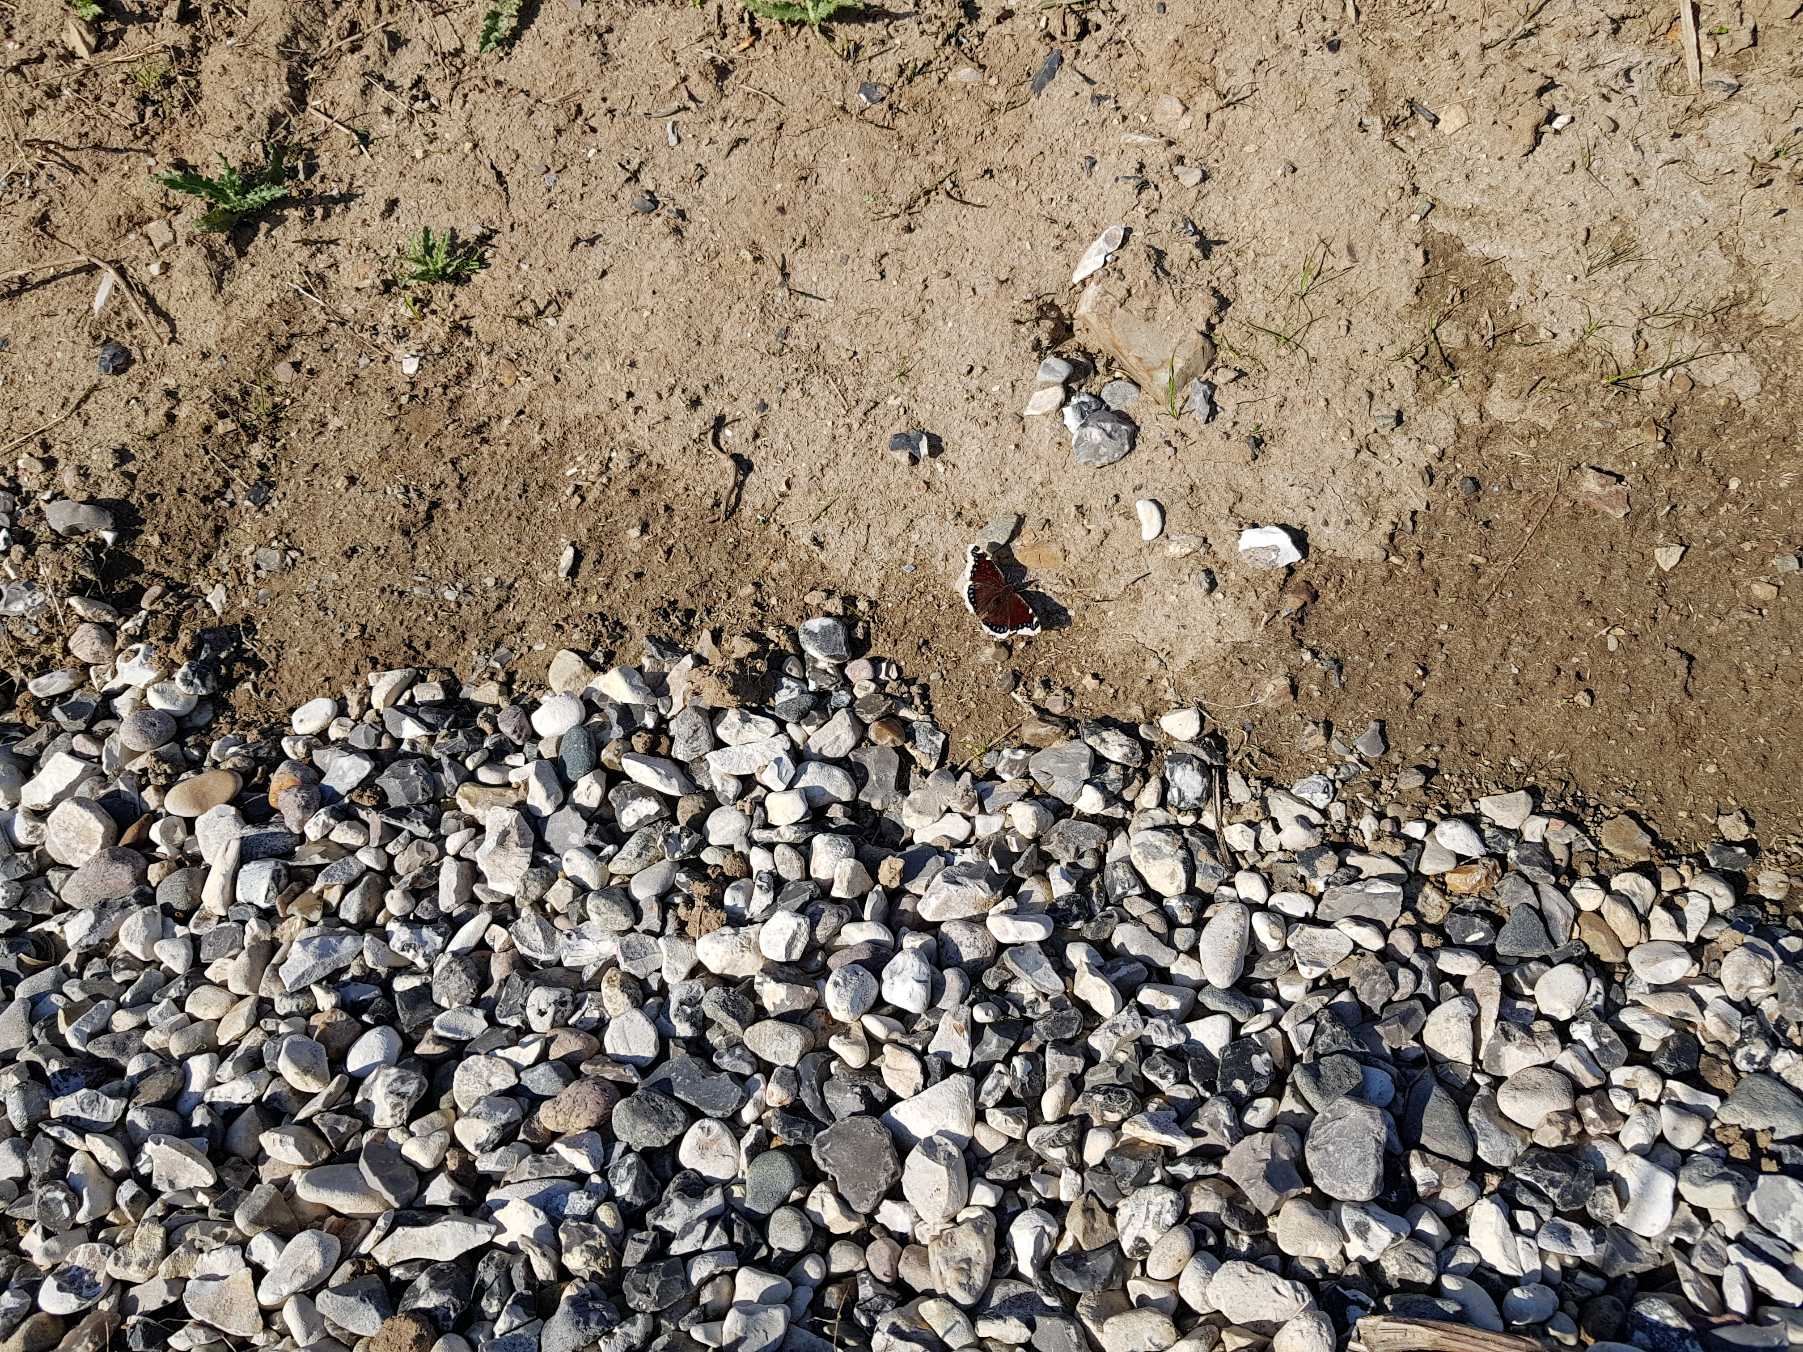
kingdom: Animalia
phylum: Arthropoda
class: Insecta
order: Lepidoptera
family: Nymphalidae
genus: Nymphalis
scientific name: Nymphalis antiopa
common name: Sørgekåbe
